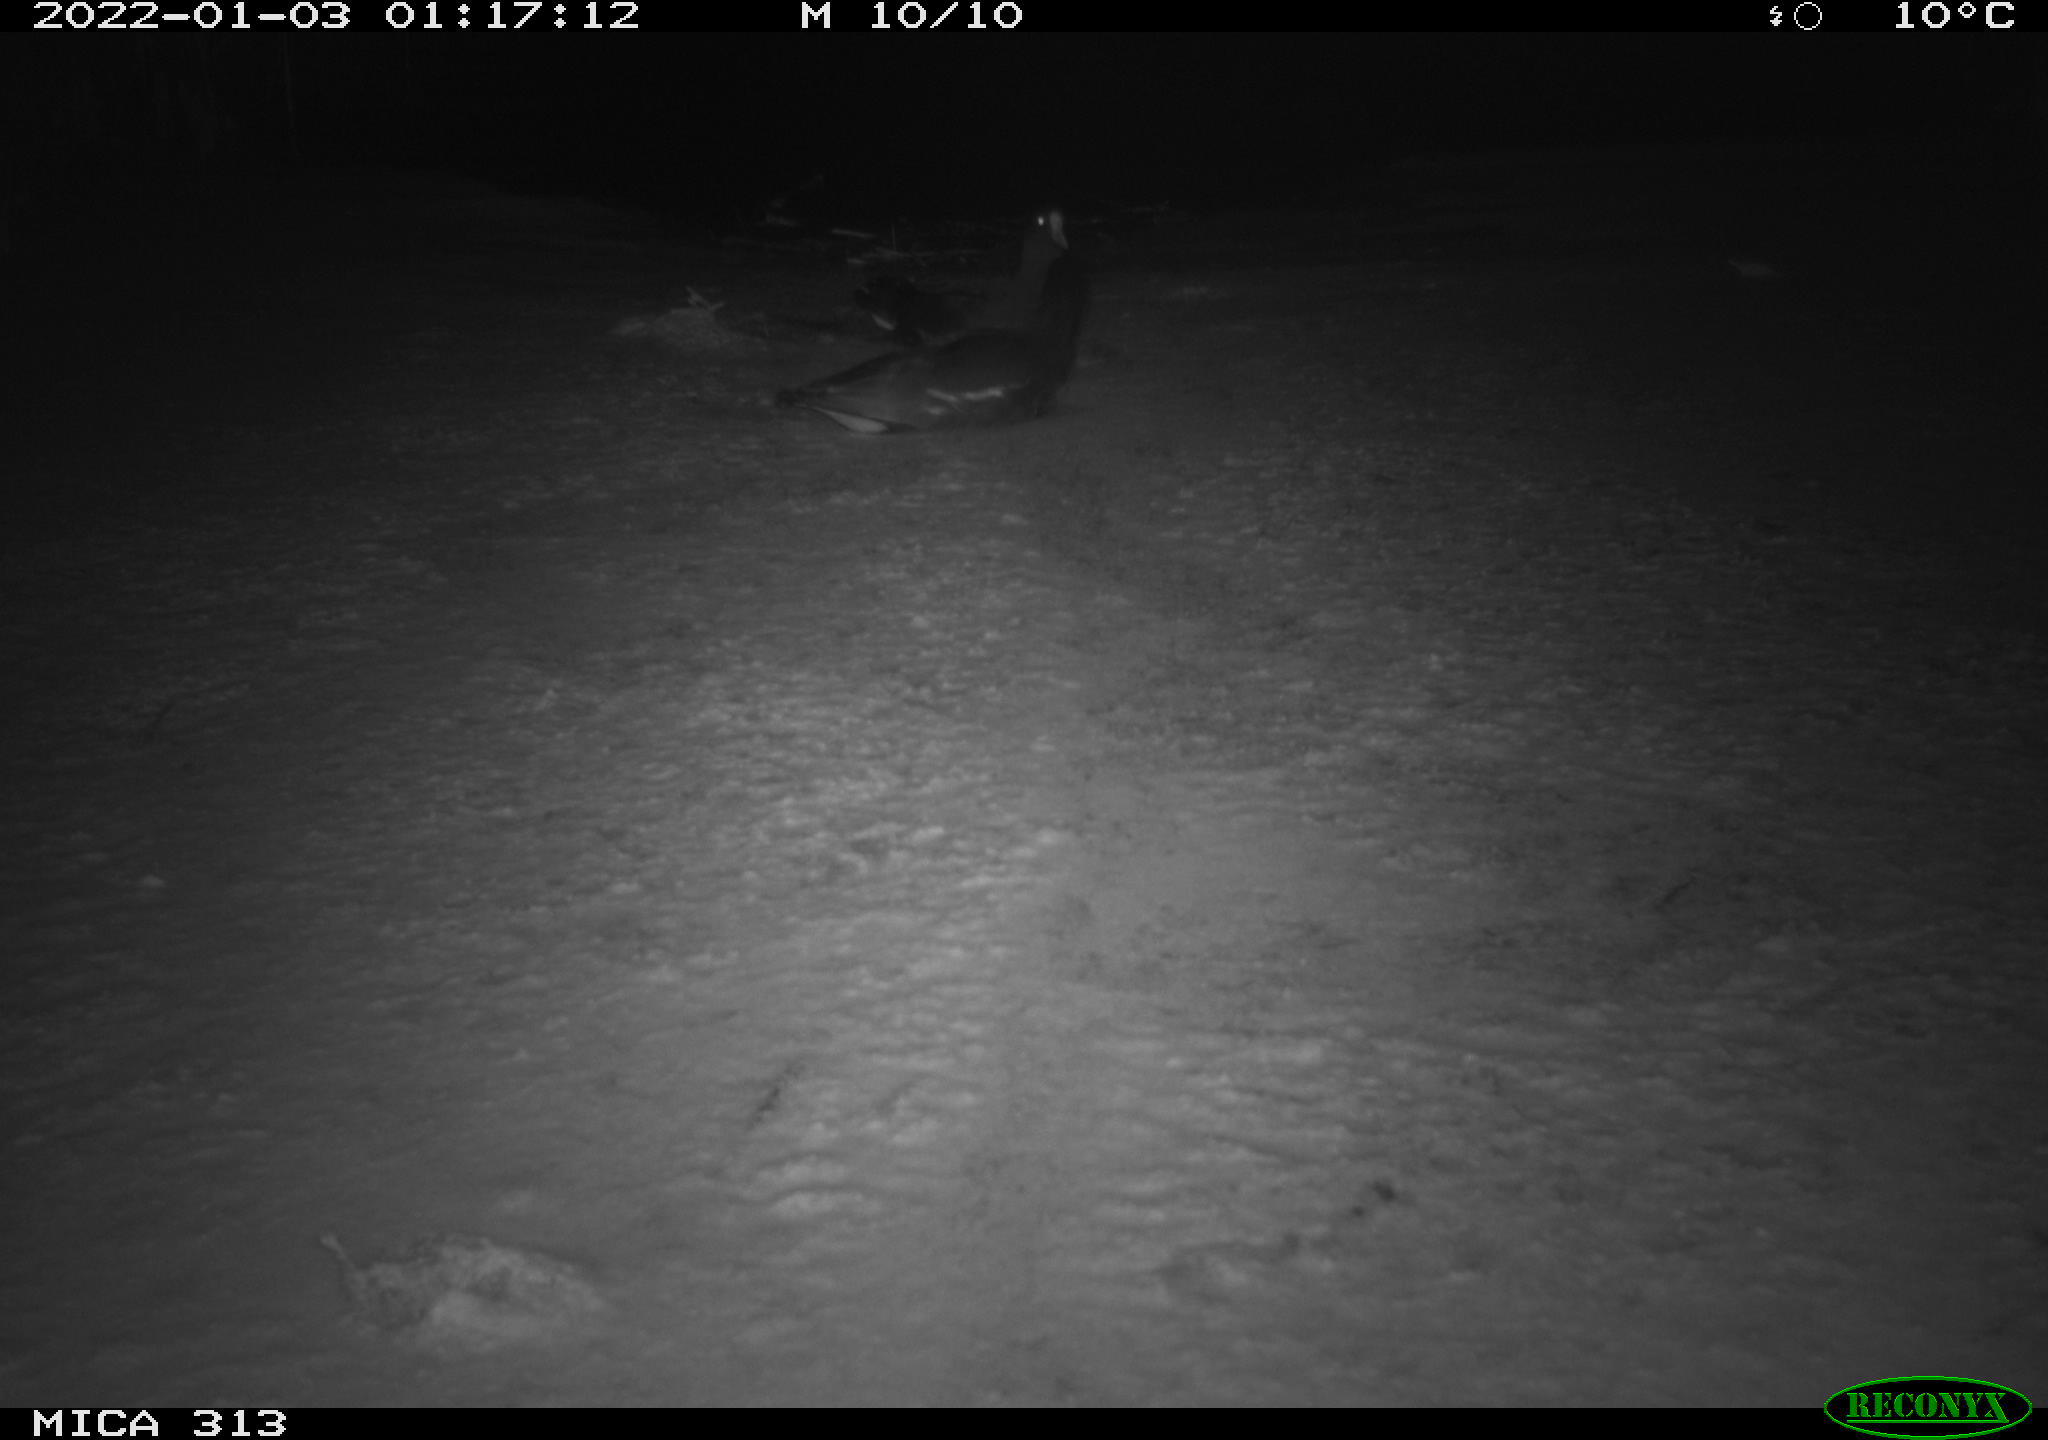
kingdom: Animalia
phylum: Chordata
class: Aves
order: Gruiformes
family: Rallidae
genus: Gallinula
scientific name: Gallinula chloropus
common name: Common moorhen
